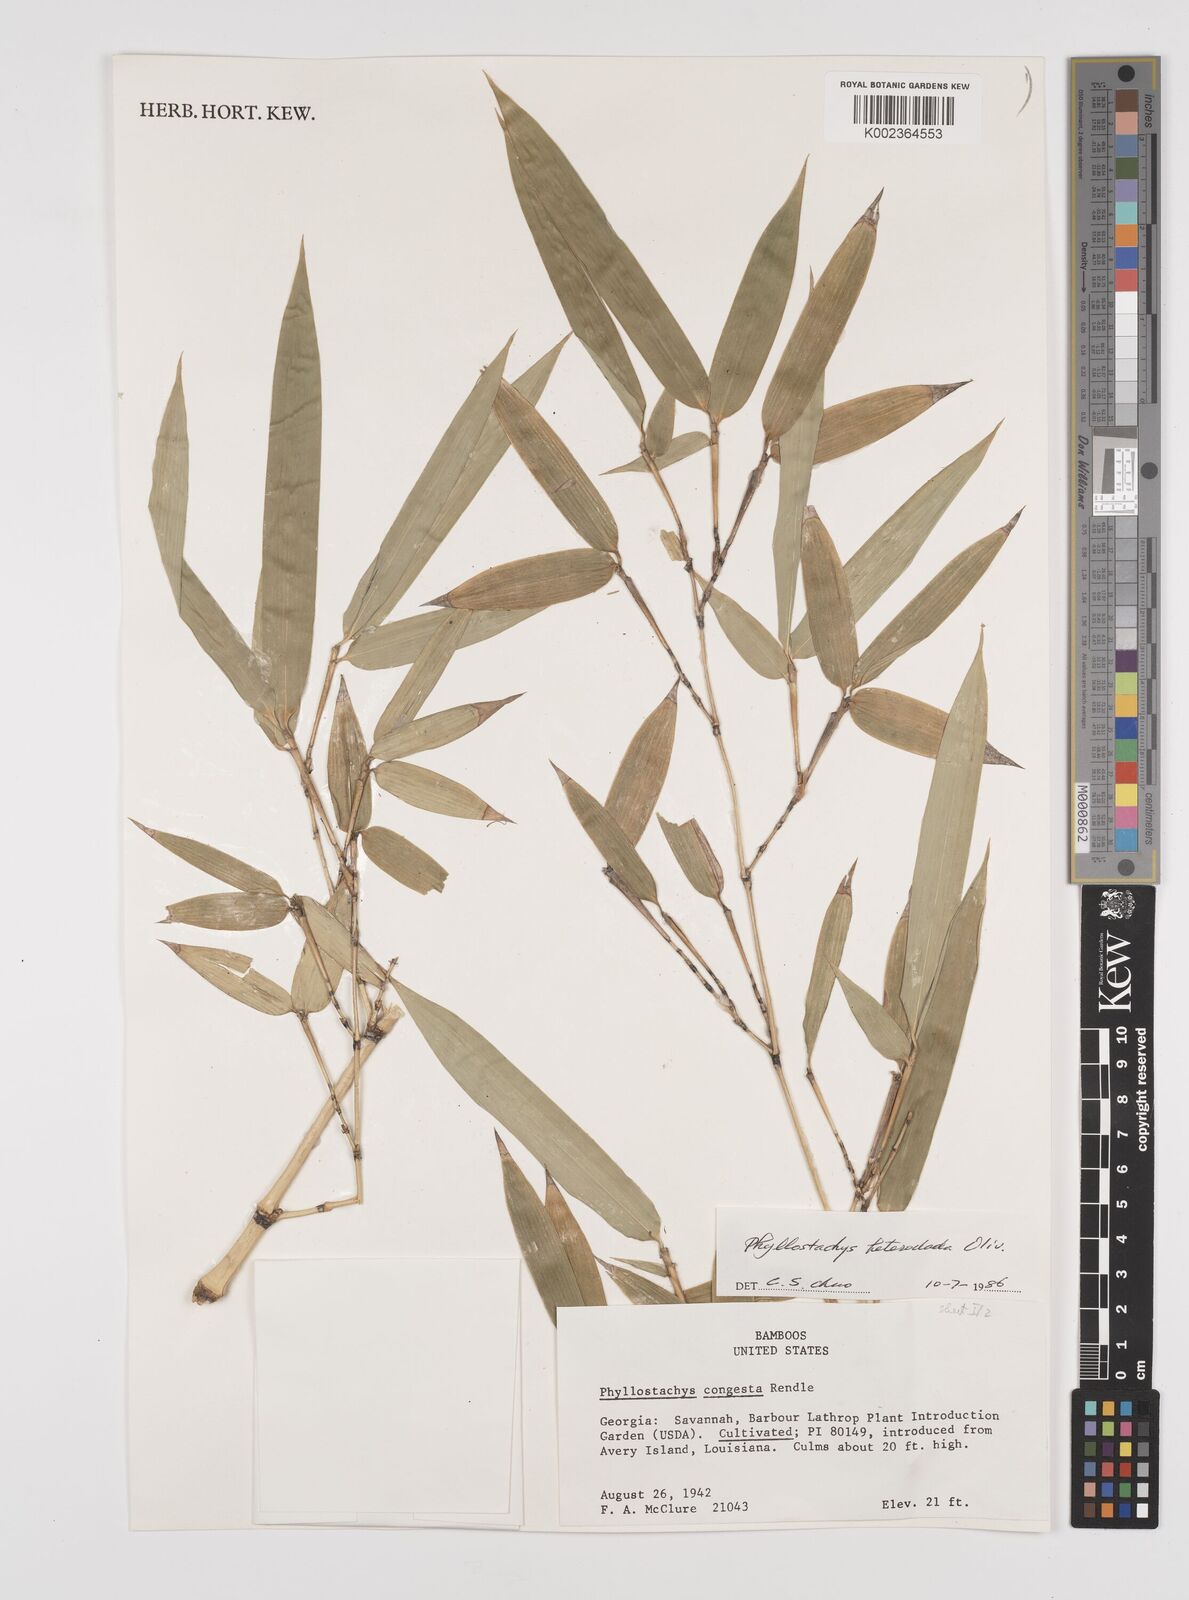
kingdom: Plantae
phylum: Tracheophyta
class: Liliopsida
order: Poales
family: Poaceae
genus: Phyllostachys
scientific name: Phyllostachys heteroclada
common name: Fishscale bamboo
